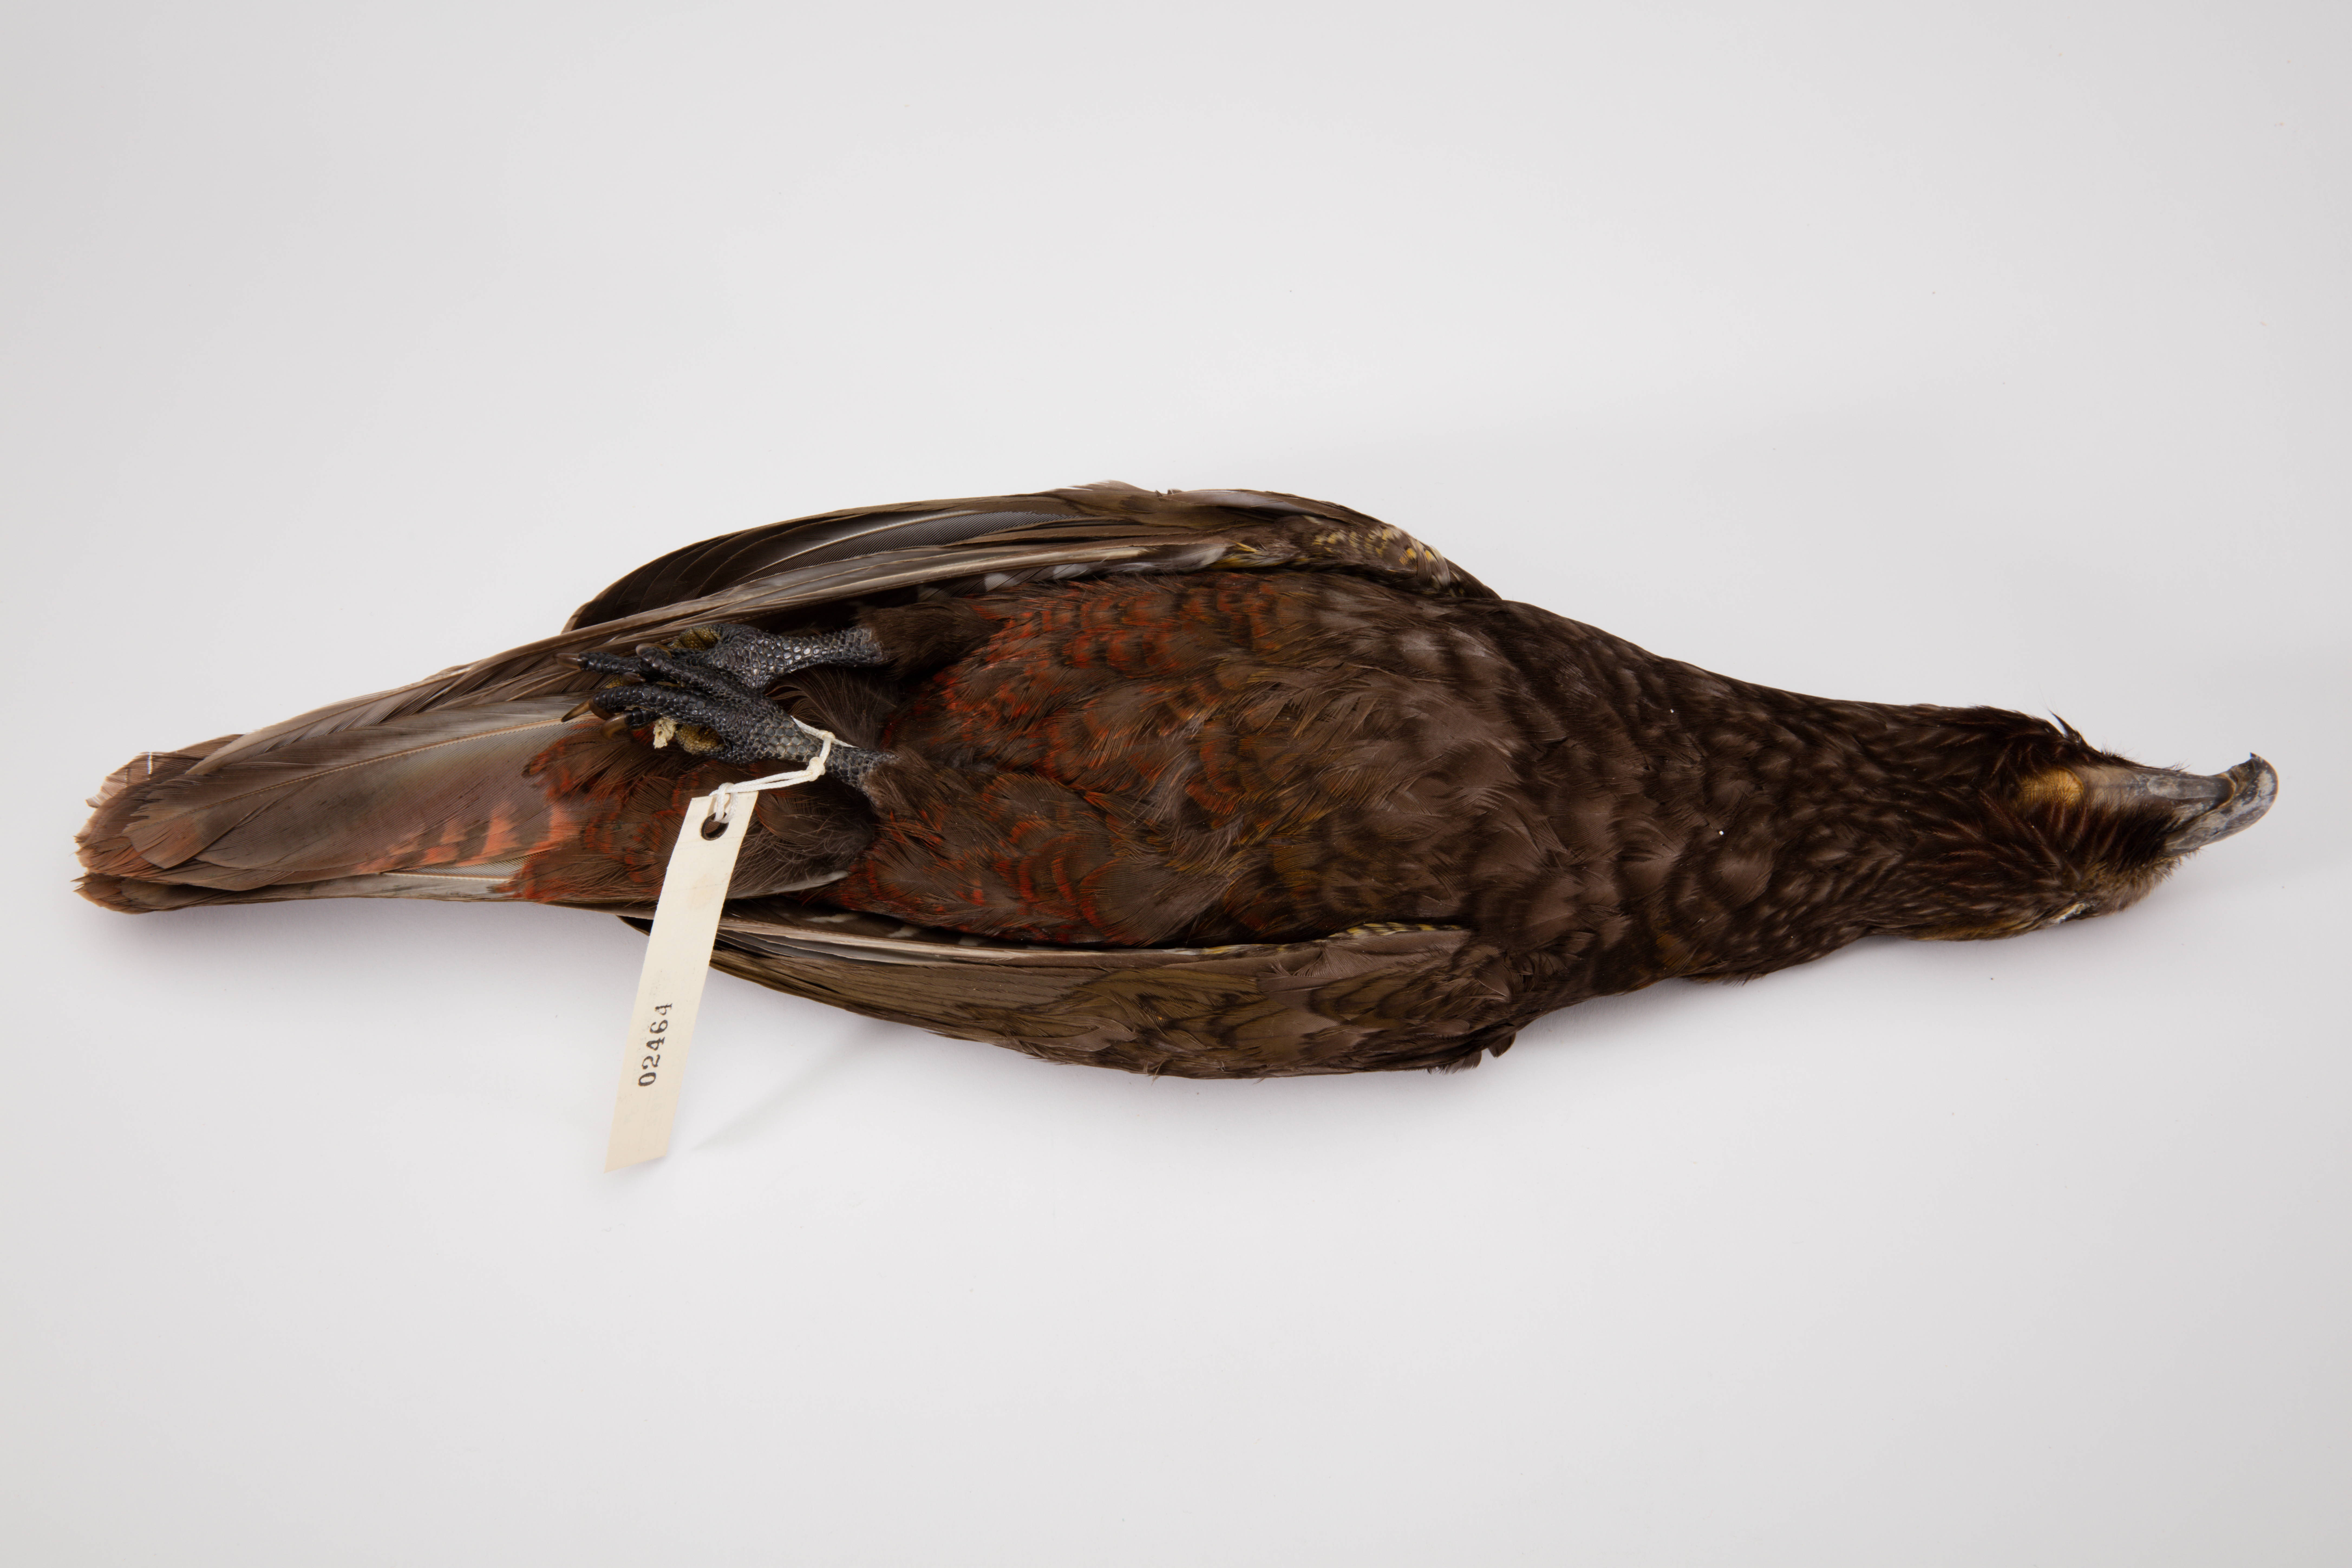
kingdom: Animalia
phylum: Chordata
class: Aves
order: Psittaciformes
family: Psittacidae
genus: Nestor
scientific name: Nestor meridionalis
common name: New zealand kaka
